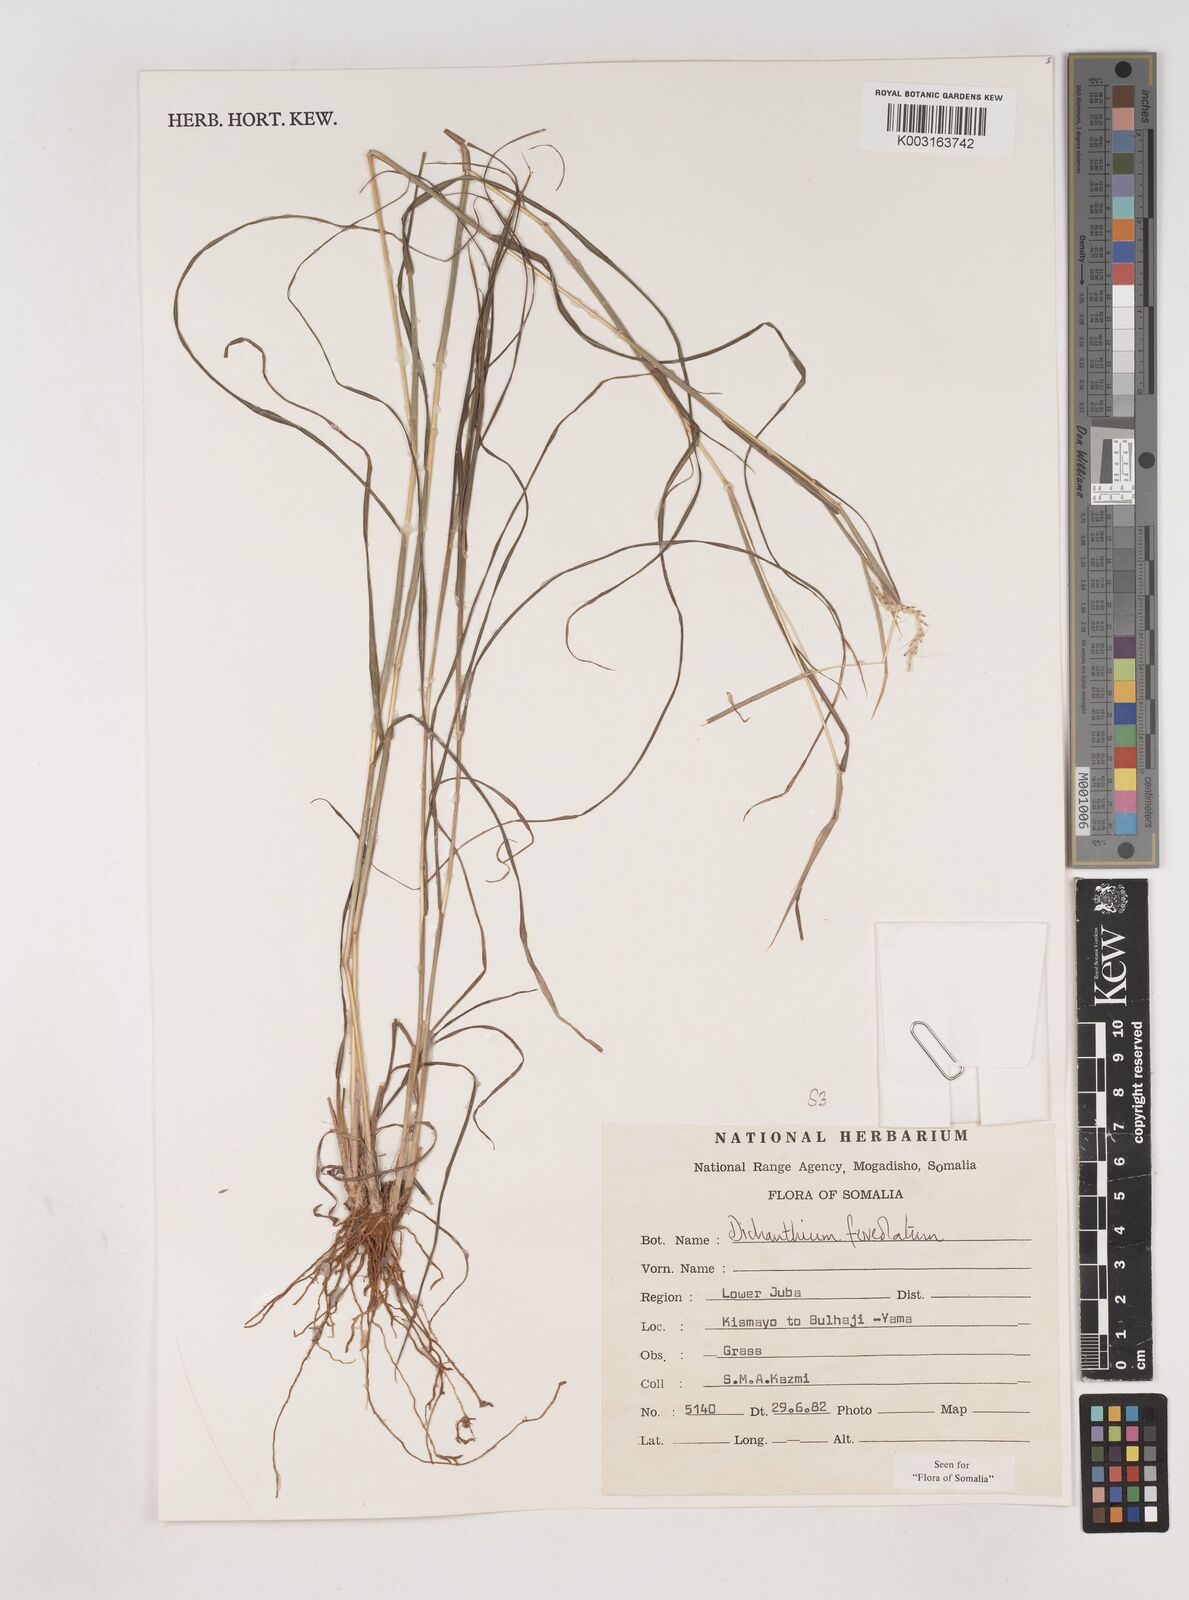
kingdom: Plantae
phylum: Tracheophyta
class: Liliopsida
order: Poales
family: Poaceae
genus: Dichanthium
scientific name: Dichanthium foveolatum
